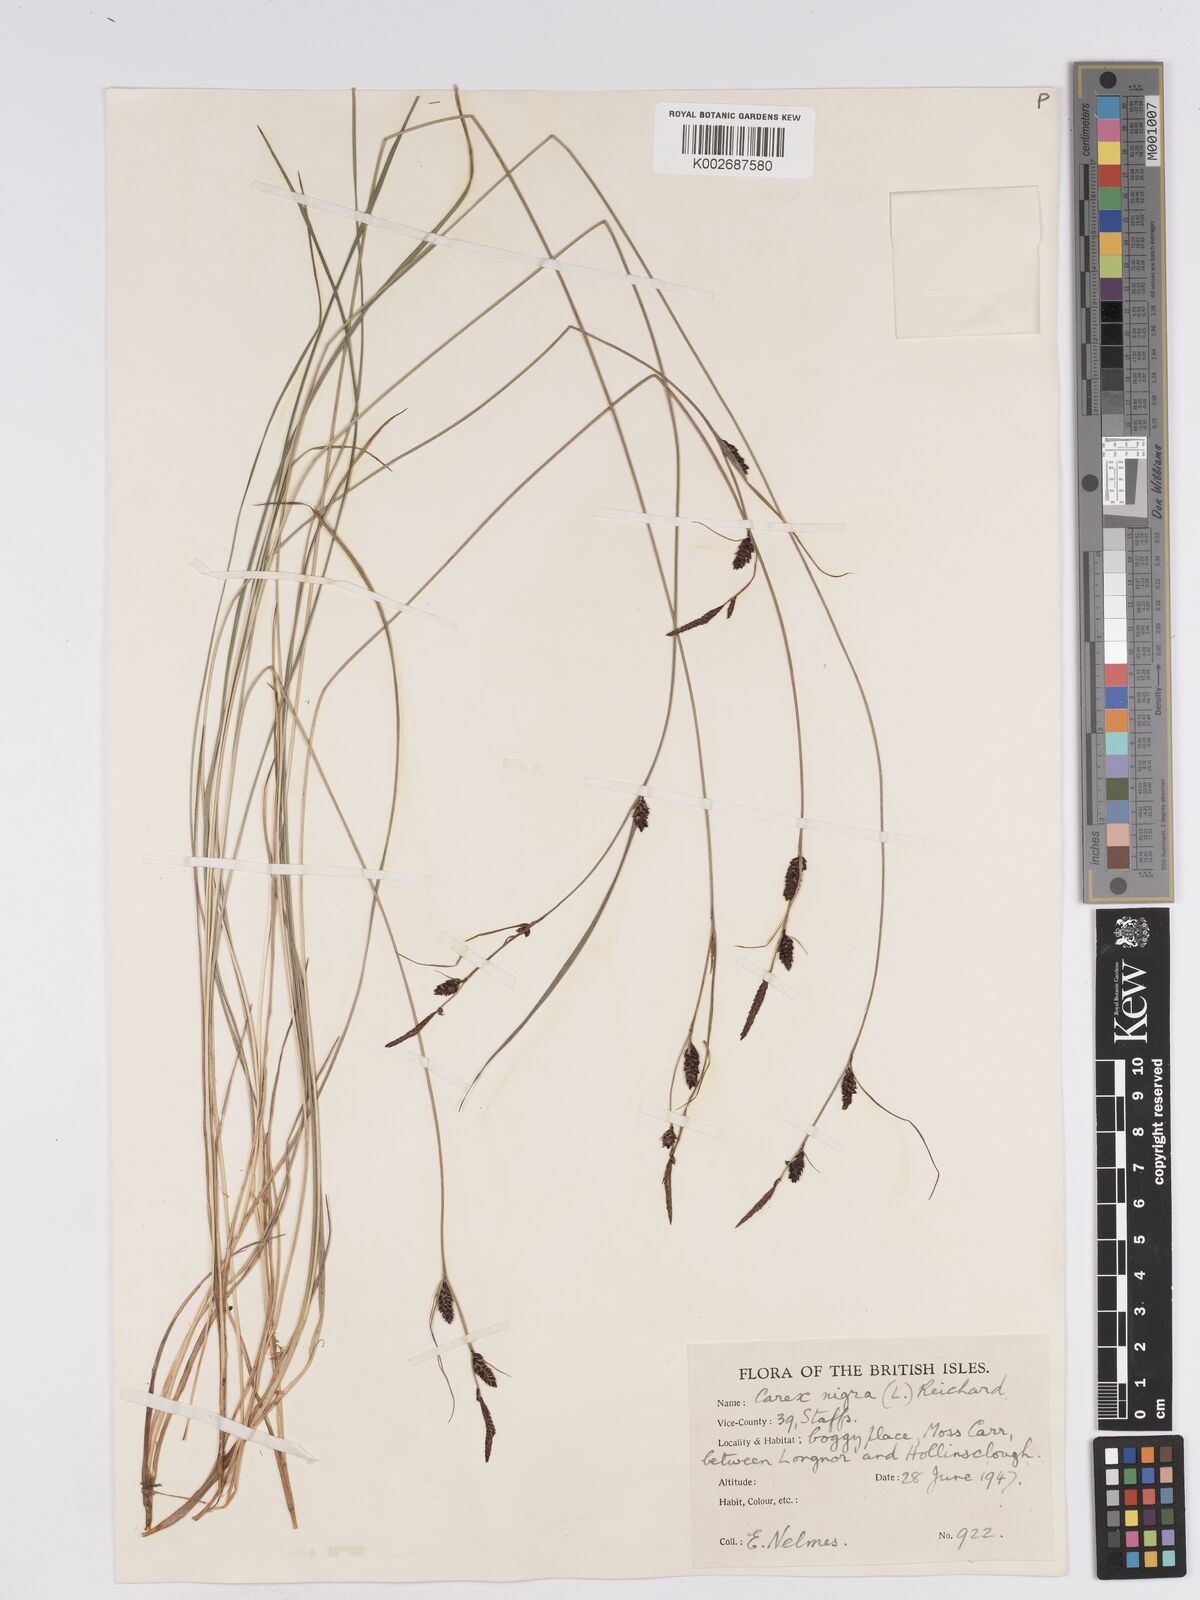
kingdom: Plantae
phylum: Tracheophyta
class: Liliopsida
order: Poales
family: Cyperaceae
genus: Carex
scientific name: Carex nigra
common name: Common sedge
